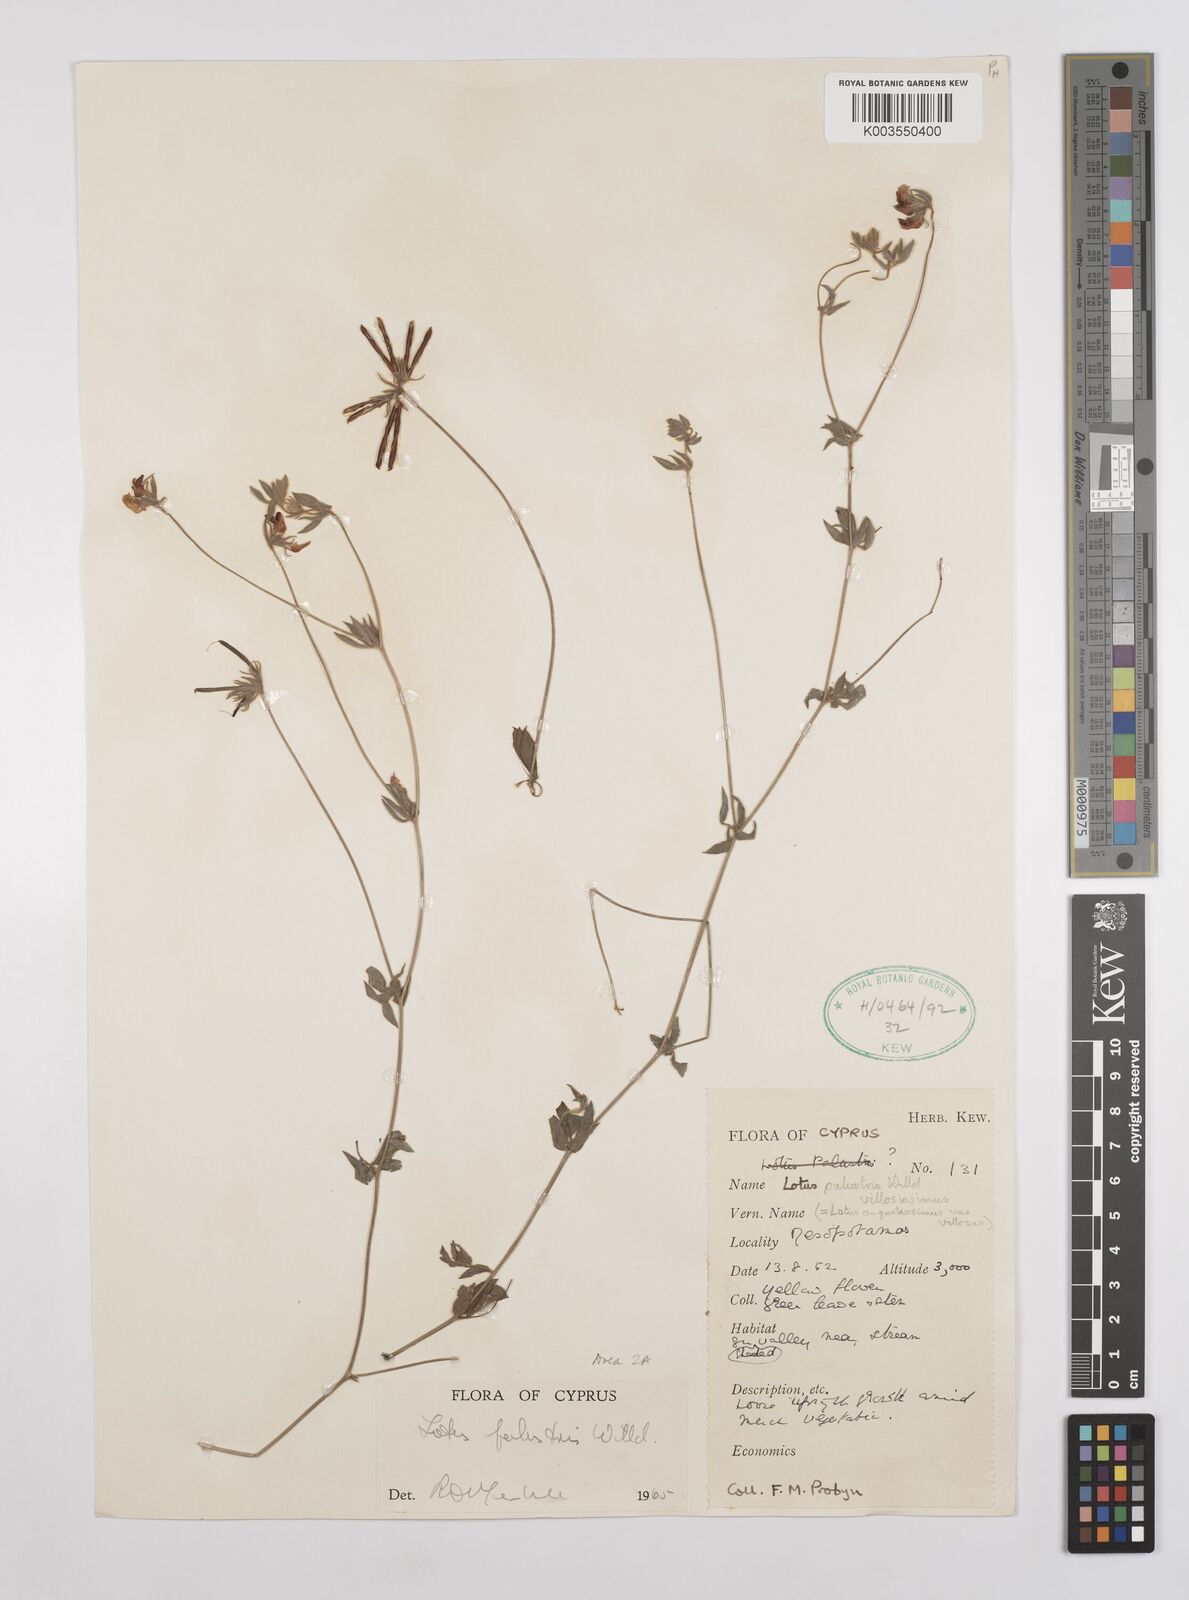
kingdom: Plantae
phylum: Tracheophyta
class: Magnoliopsida
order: Fabales
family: Fabaceae
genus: Lotus
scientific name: Lotus palustris
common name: Large birds-foot trefoil
